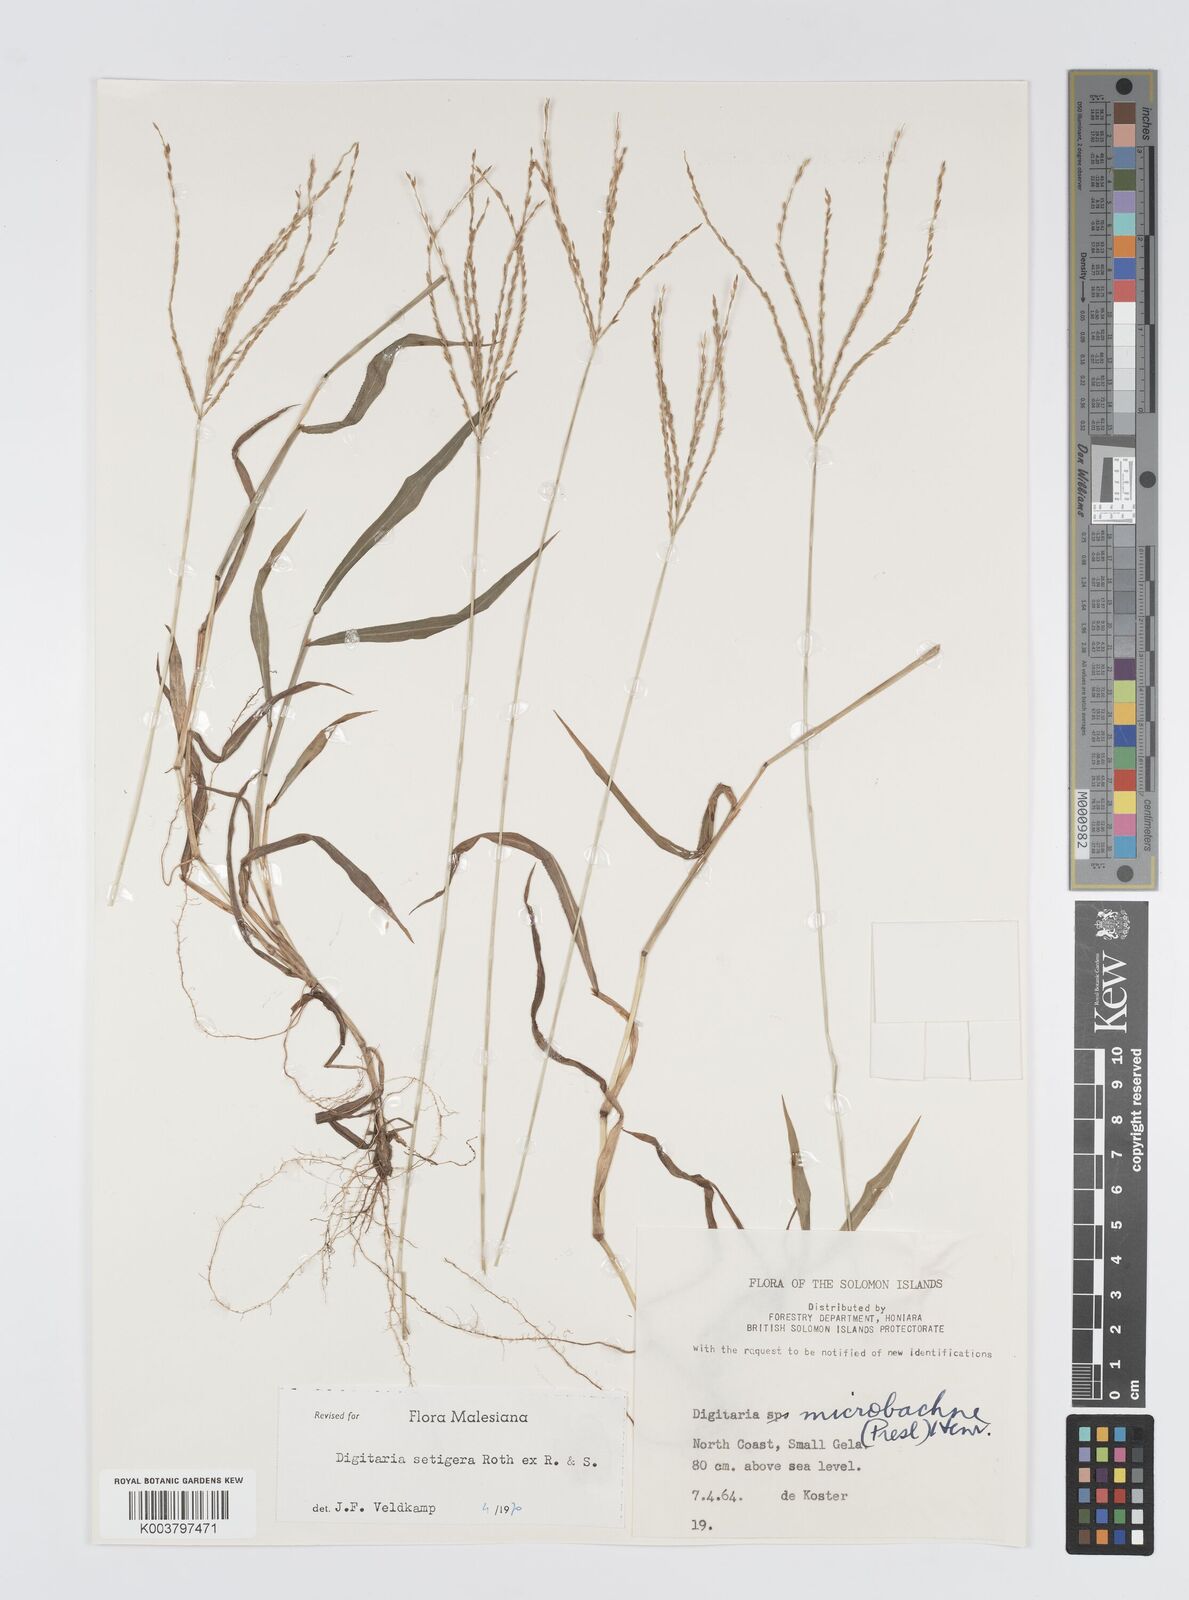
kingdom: Plantae
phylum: Tracheophyta
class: Liliopsida
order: Poales
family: Poaceae
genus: Digitaria
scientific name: Digitaria setigera
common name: East indian crabgrass
